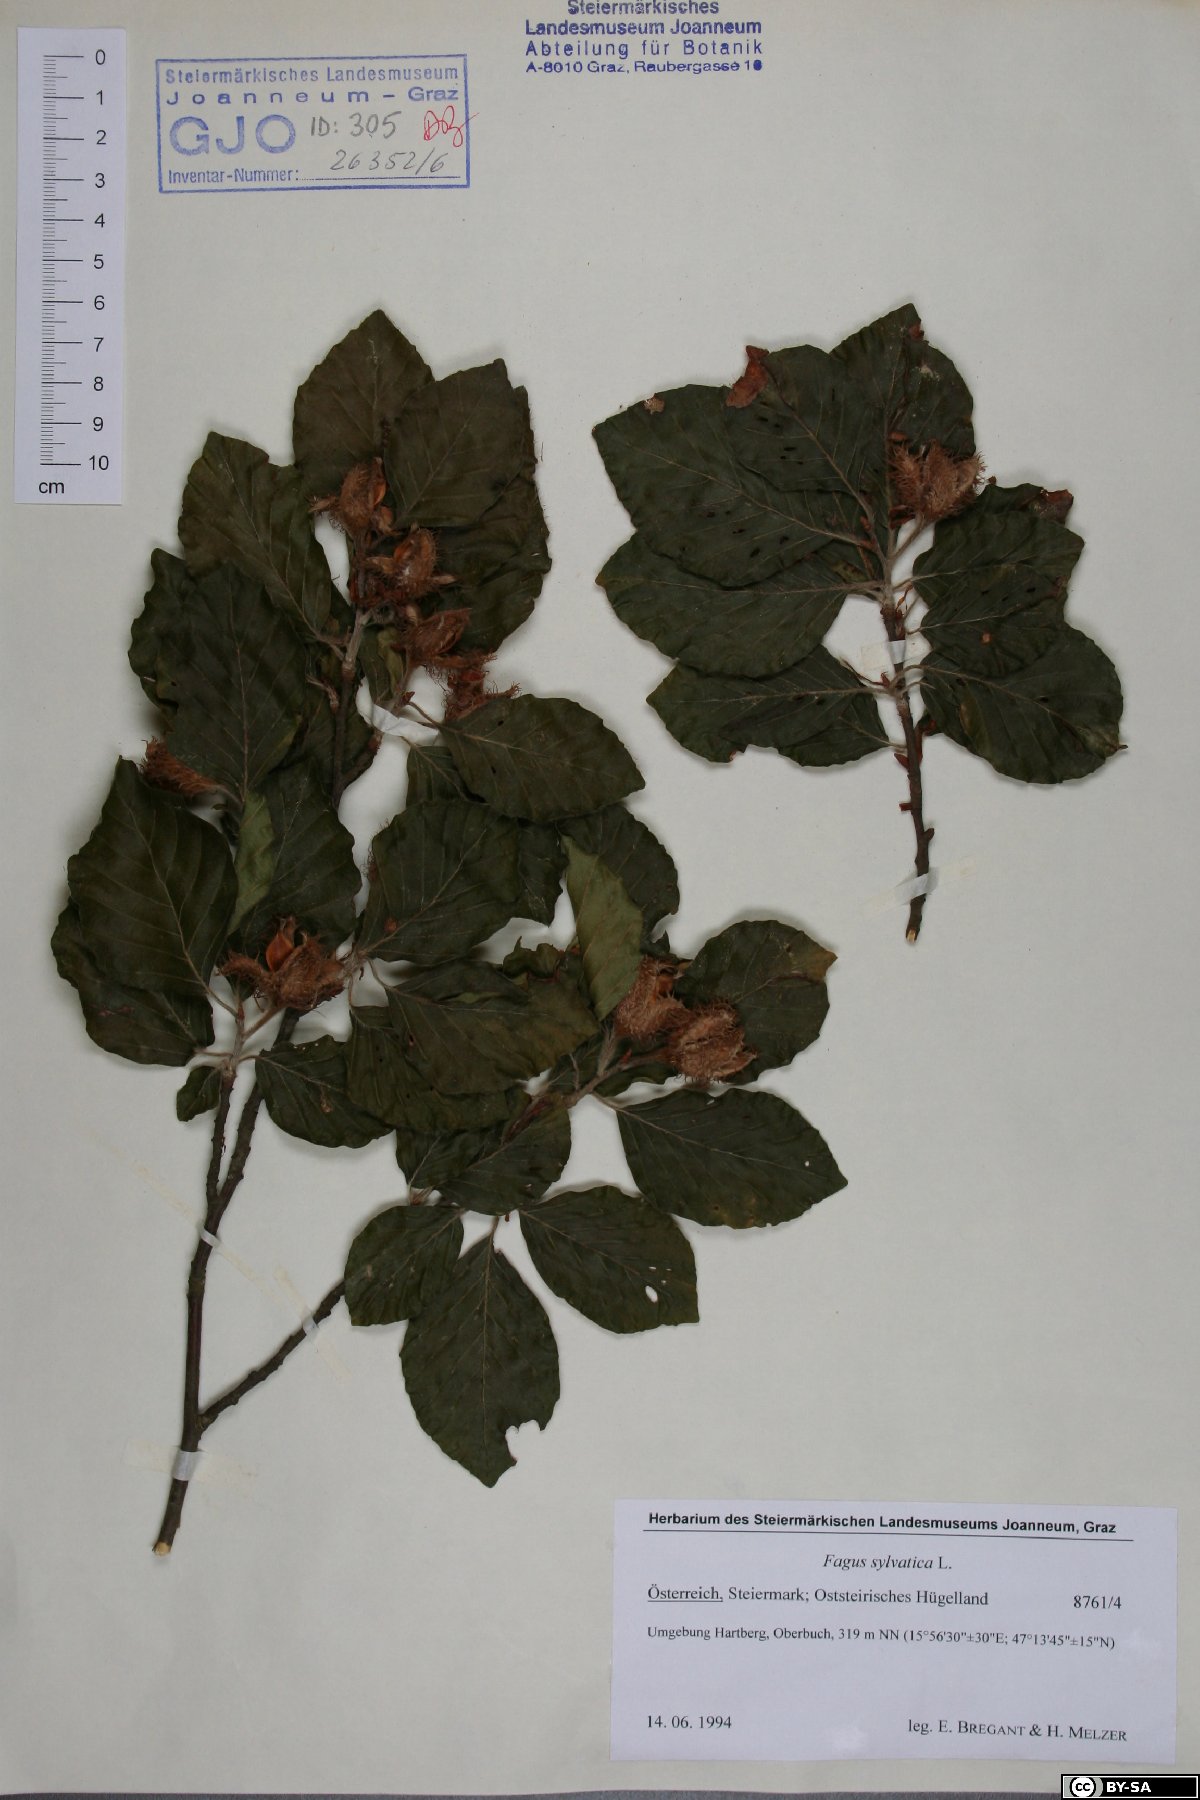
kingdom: Plantae
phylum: Tracheophyta
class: Magnoliopsida
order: Fagales
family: Fagaceae
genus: Fagus
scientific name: Fagus sylvatica
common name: Beech
